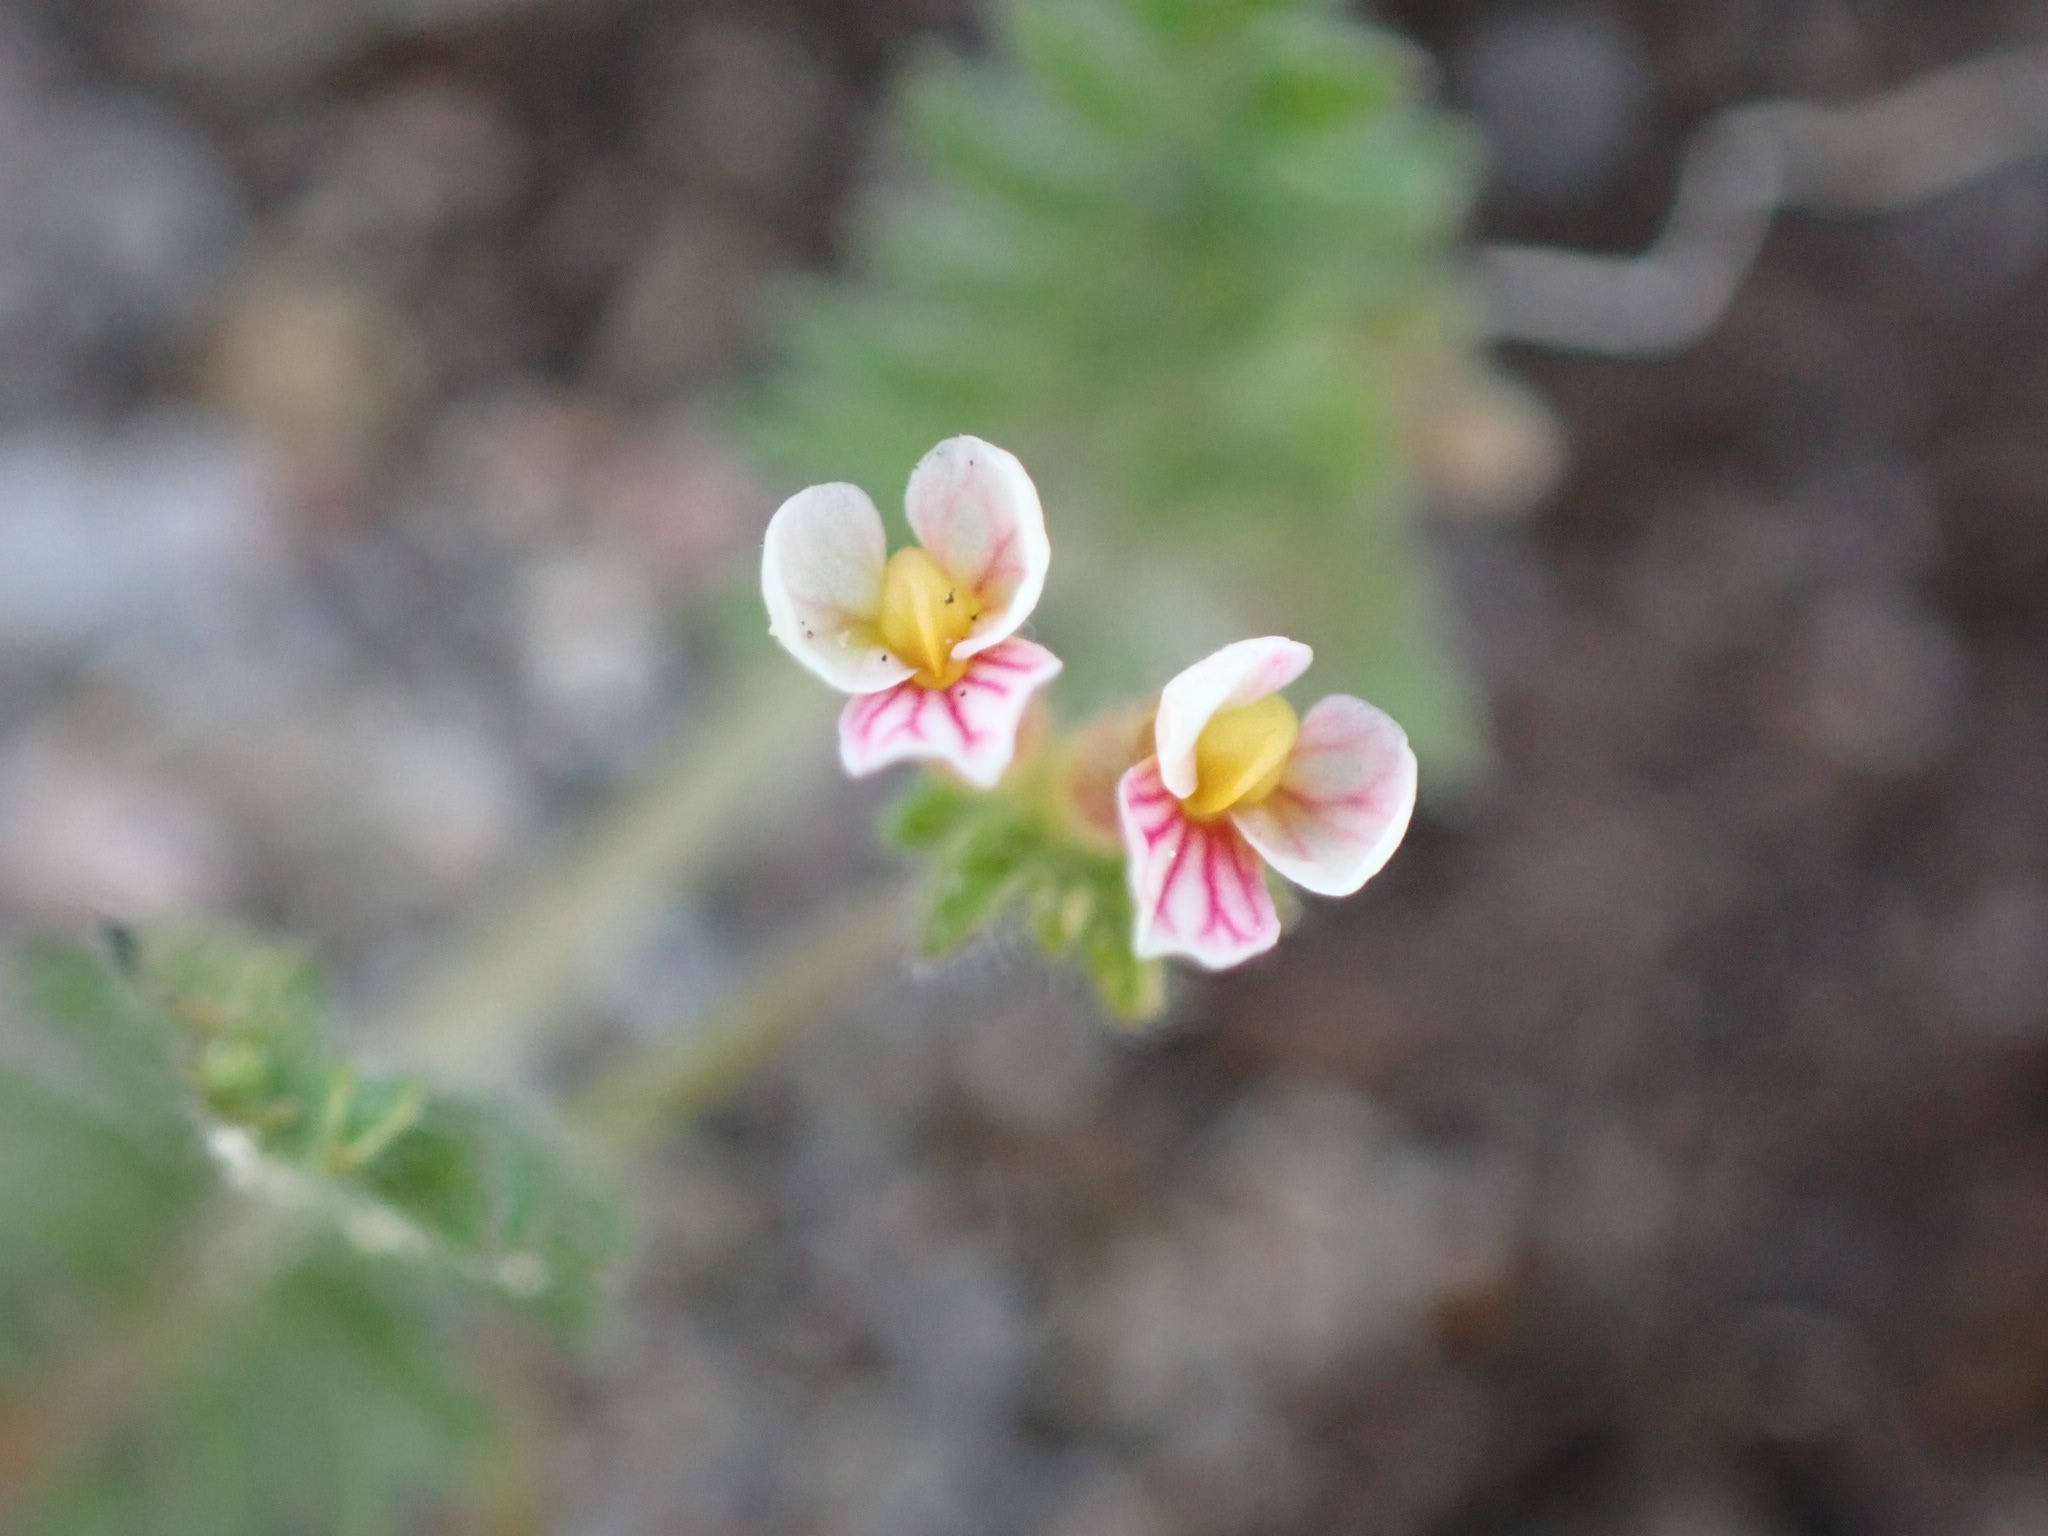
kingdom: Plantae
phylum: Tracheophyta
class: Magnoliopsida
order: Fabales
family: Fabaceae
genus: Ornithopus
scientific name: Ornithopus perpusillus
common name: Liden fugleklo
